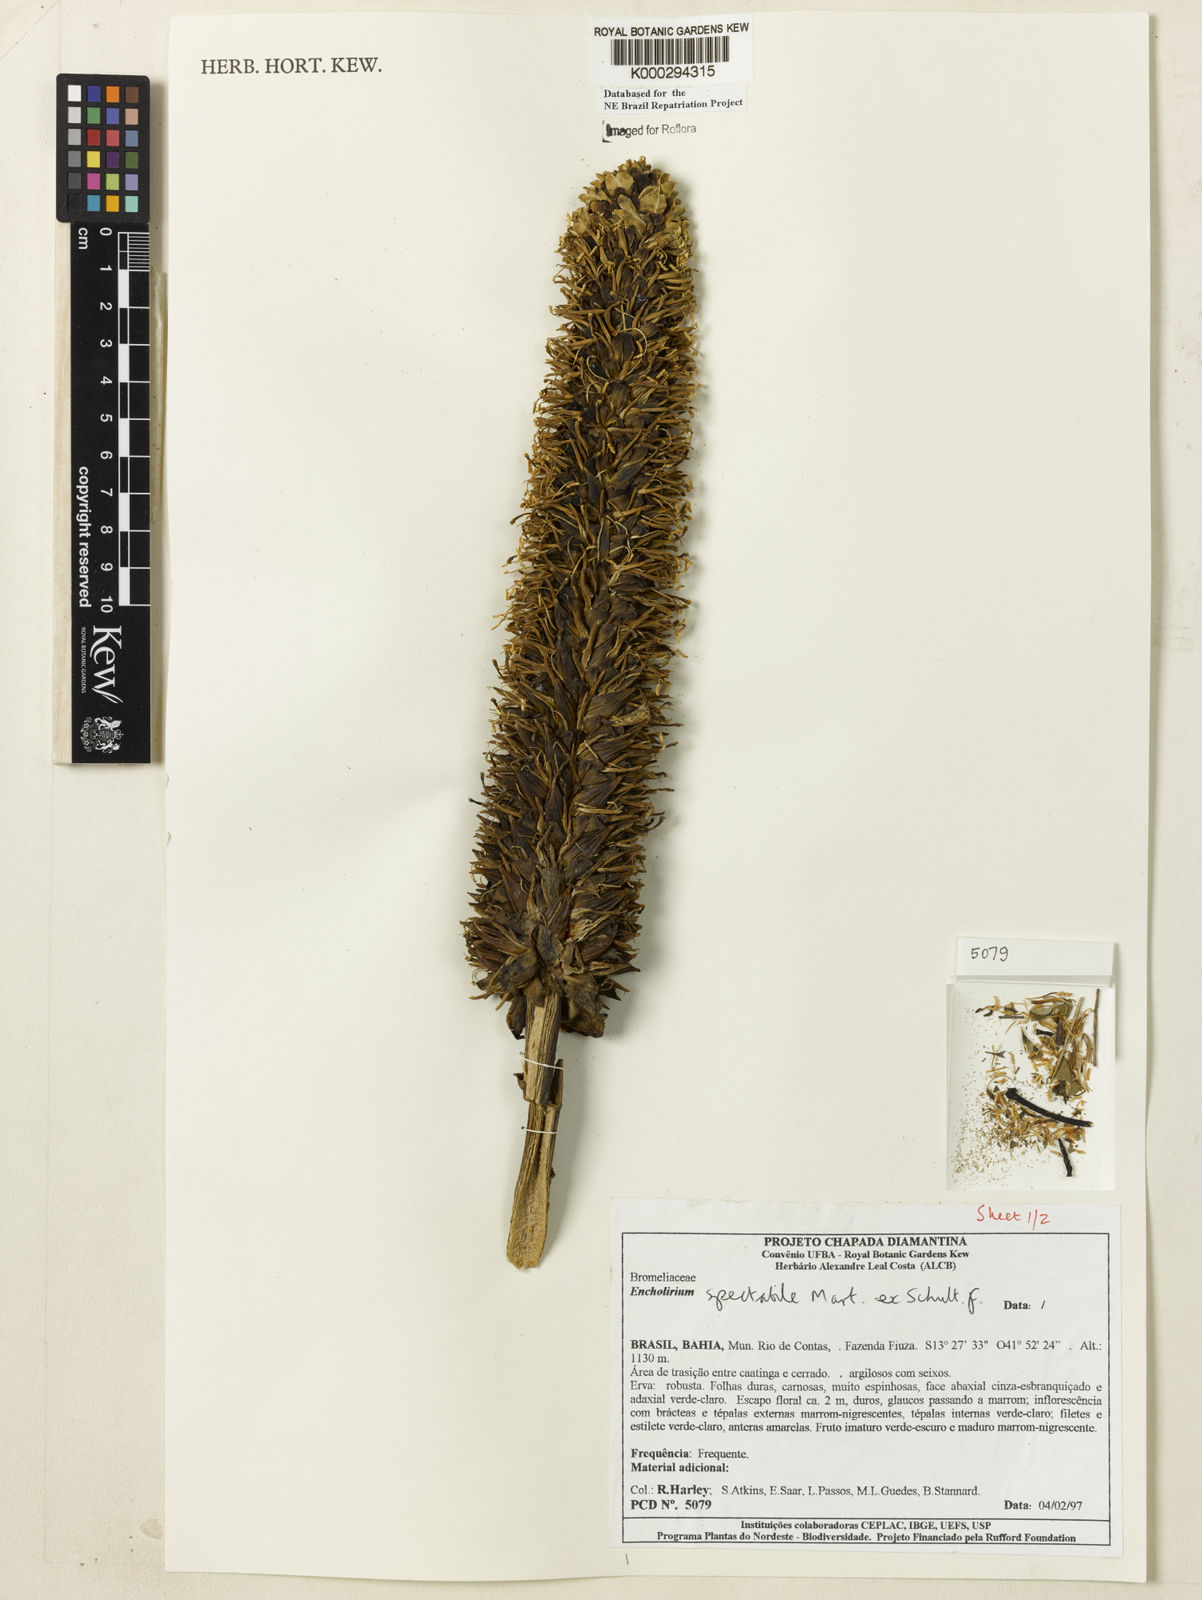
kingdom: Plantae
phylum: Tracheophyta
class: Liliopsida
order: Poales
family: Bromeliaceae
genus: Encholirium
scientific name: Encholirium spectabile
